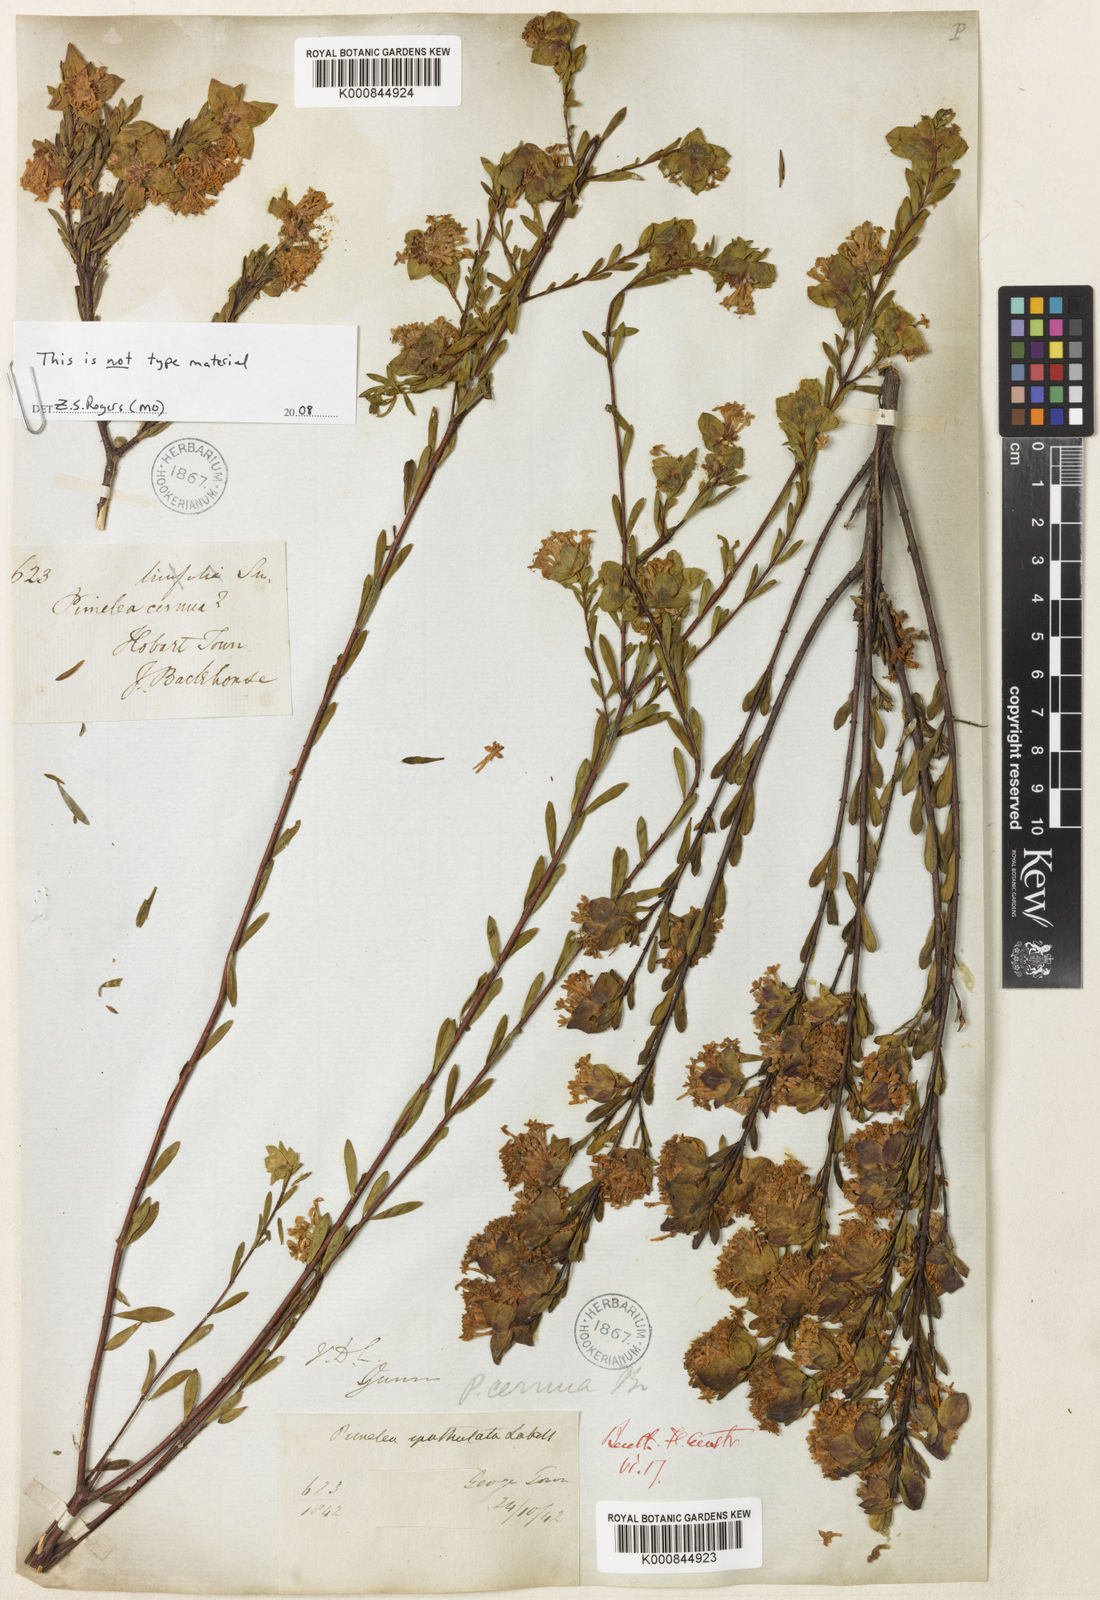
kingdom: Plantae
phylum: Tracheophyta
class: Magnoliopsida
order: Malvales
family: Thymelaeaceae
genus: Pimelea
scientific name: Pimelea linifolia
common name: Queen-of-the-bush
